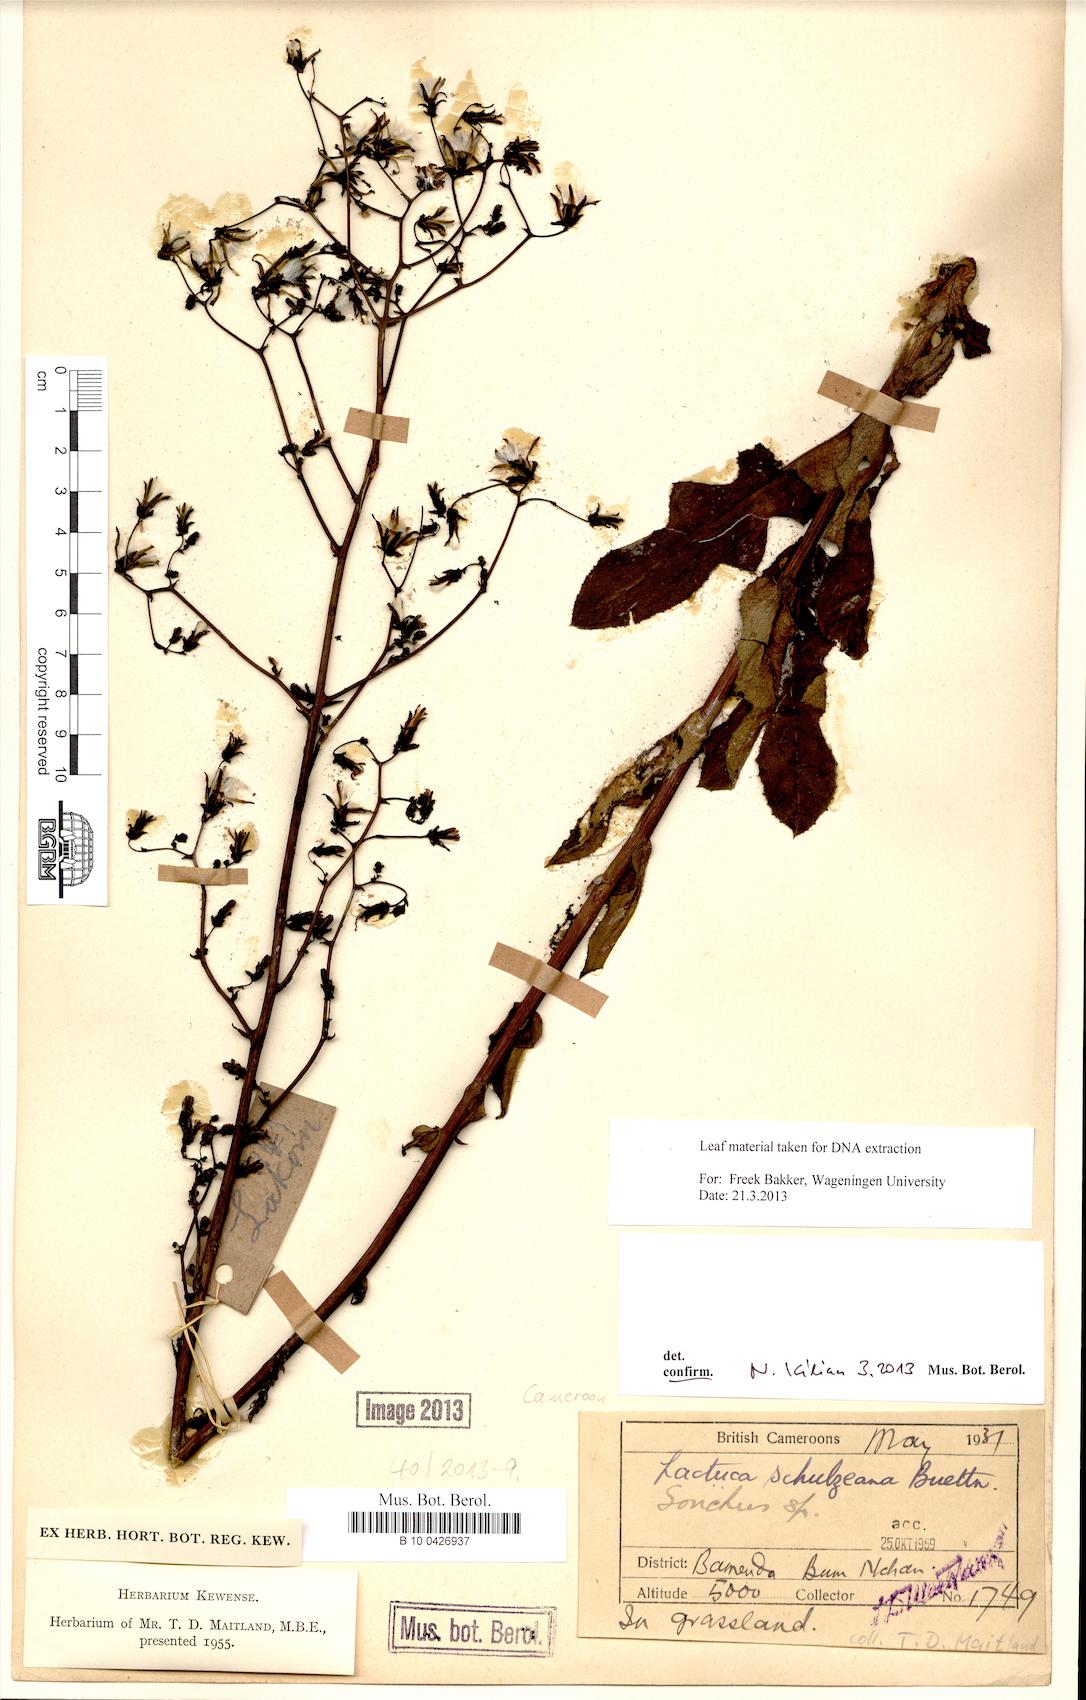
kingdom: Plantae
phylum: Tracheophyta
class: Magnoliopsida
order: Asterales
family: Asteraceae
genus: Lactuca
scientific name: Lactuca schulzeana
